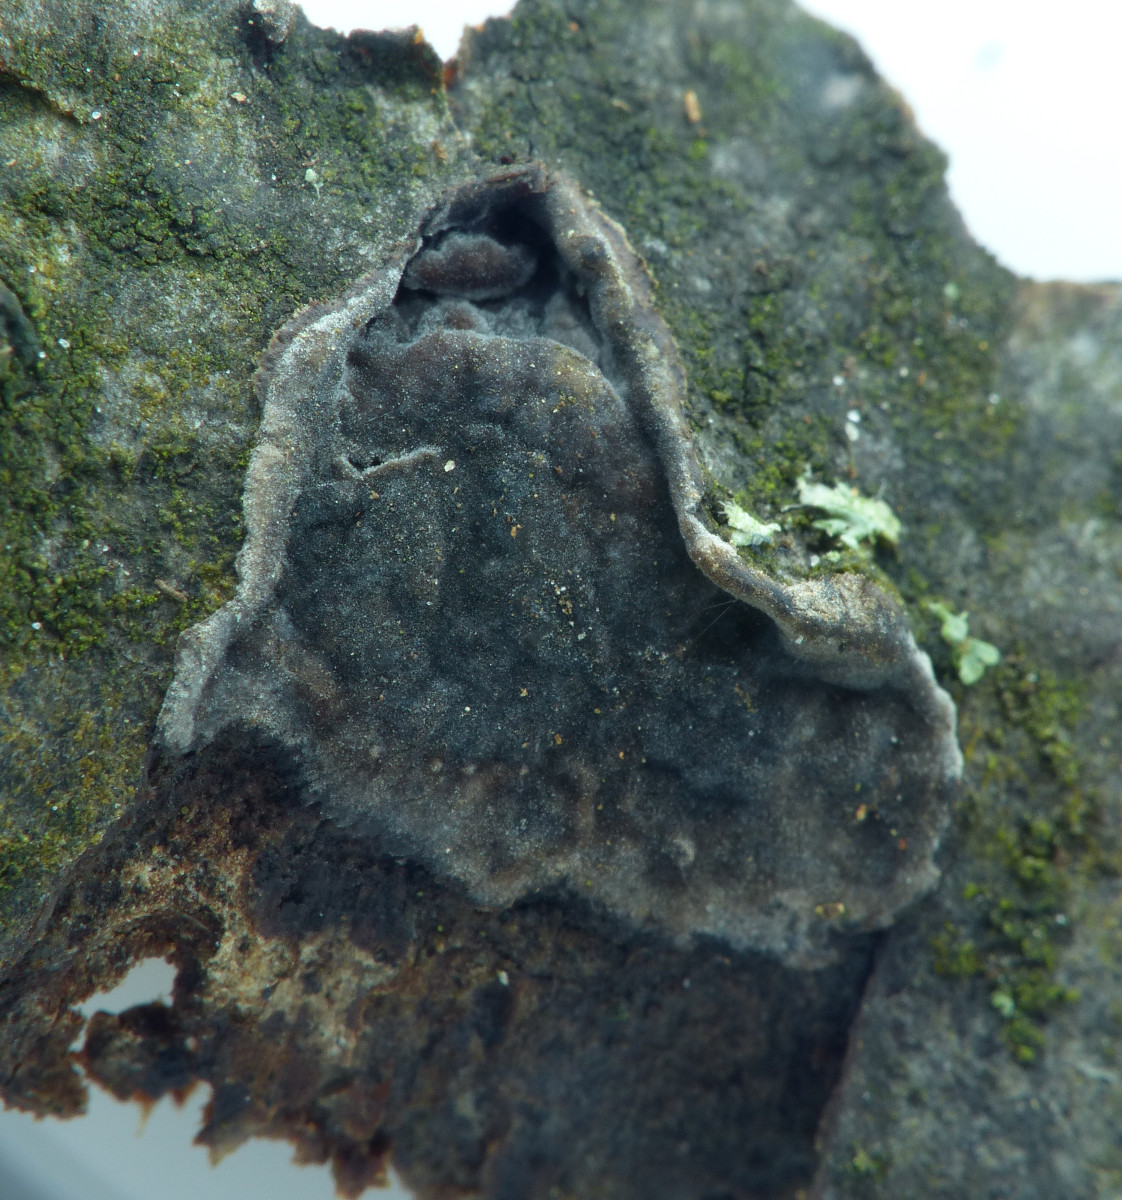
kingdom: Fungi
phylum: Basidiomycota
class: Agaricomycetes
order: Russulales
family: Peniophoraceae
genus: Peniophora
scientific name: Peniophora rufomarginata
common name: linde-voksskind
